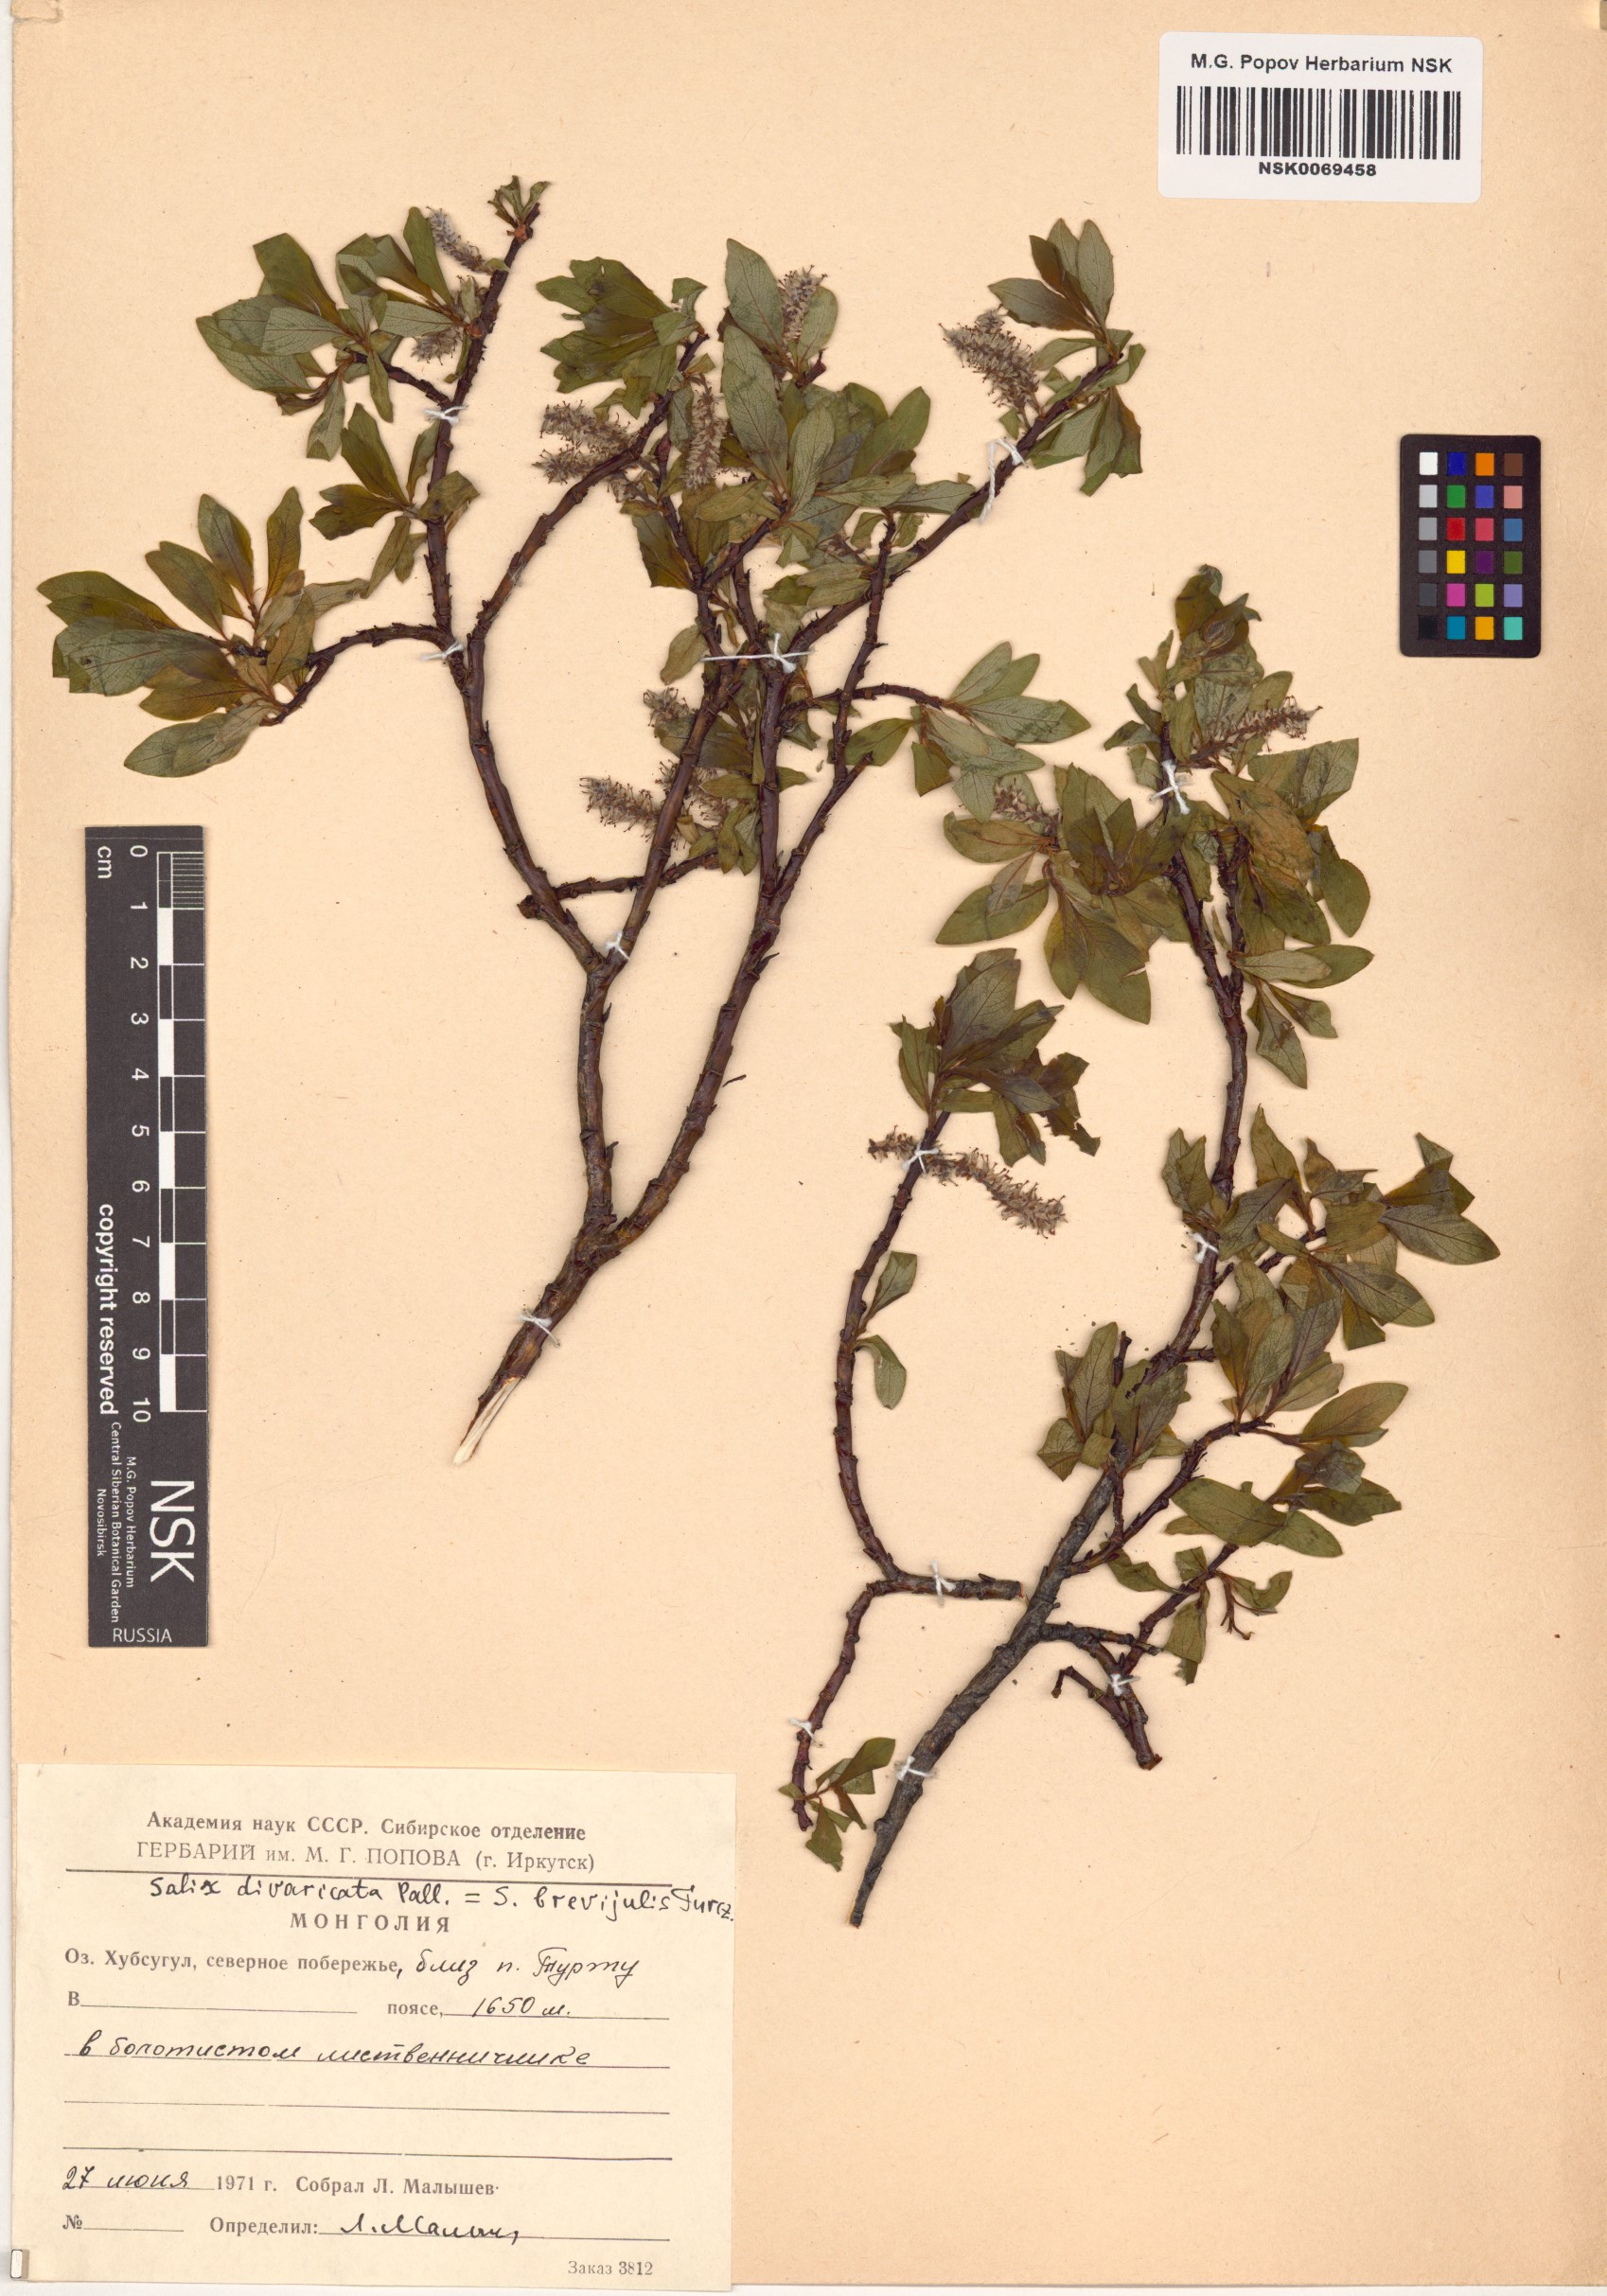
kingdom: Plantae
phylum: Tracheophyta
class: Magnoliopsida
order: Malpighiales
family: Salicaceae
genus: Salix
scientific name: Salix divaricata
